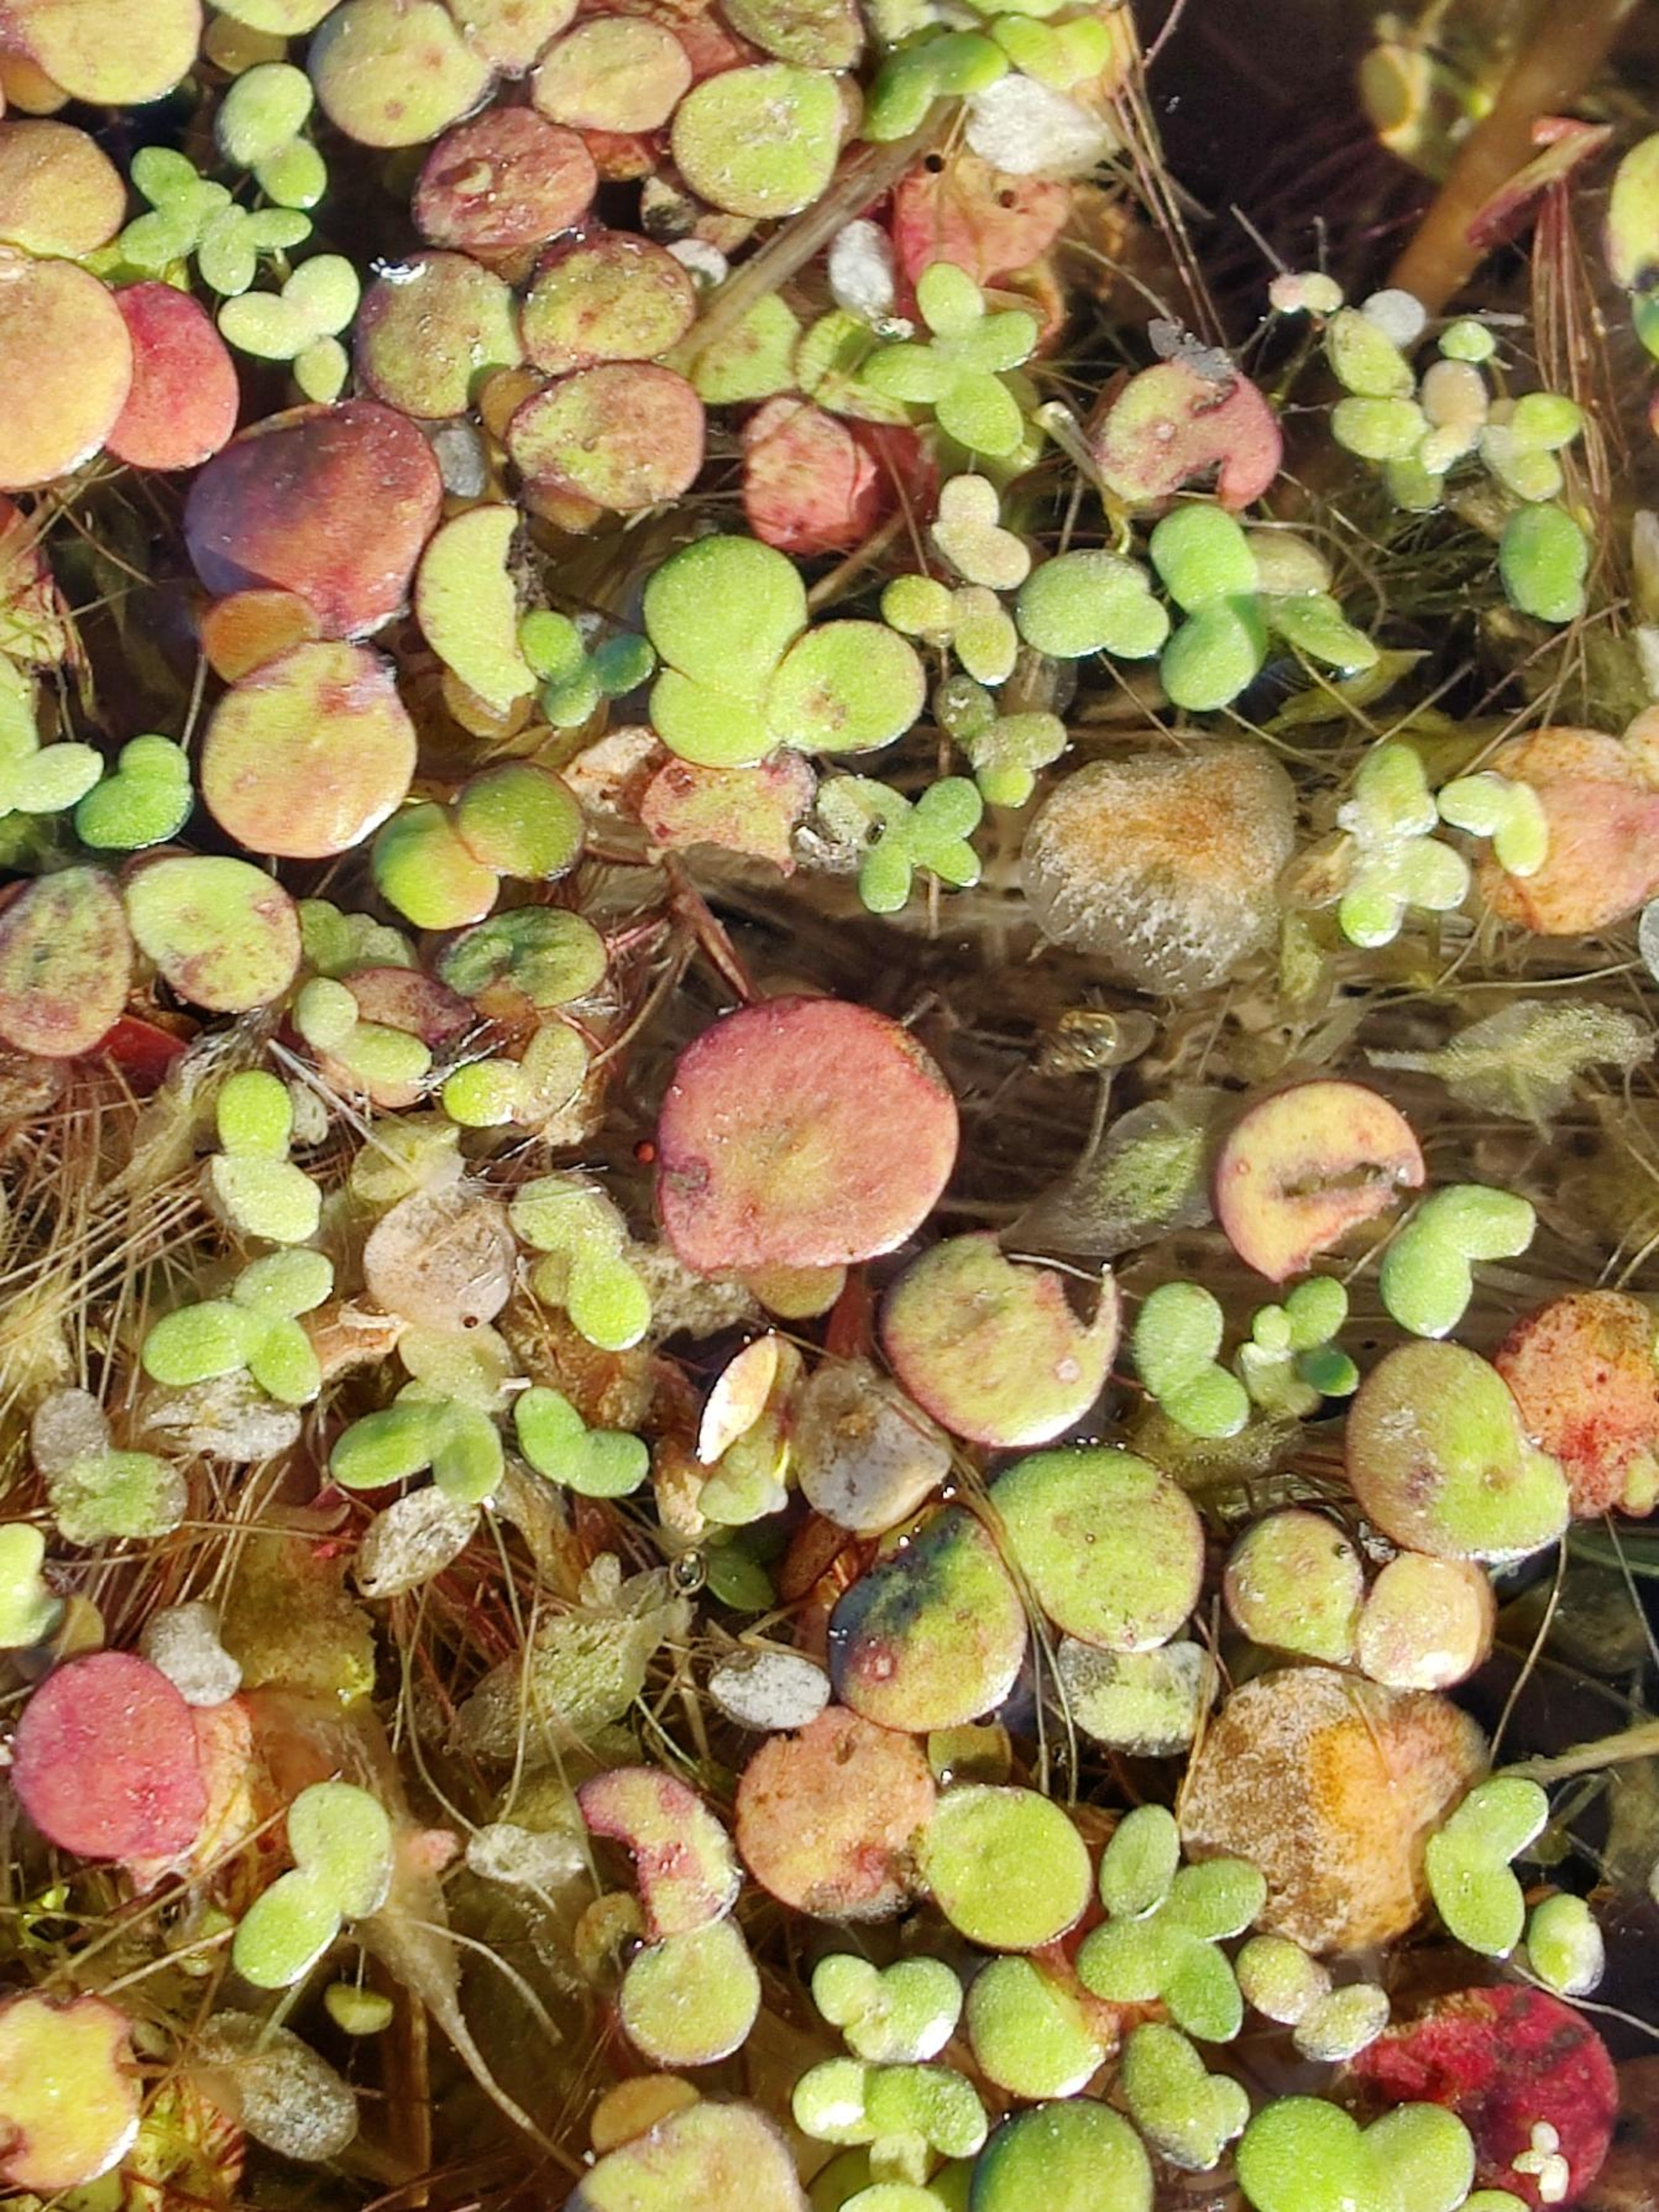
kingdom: Plantae
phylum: Tracheophyta
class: Liliopsida
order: Alismatales
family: Araceae
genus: Spirodela
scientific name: Spirodela polyrhiza
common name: Stor andemad
